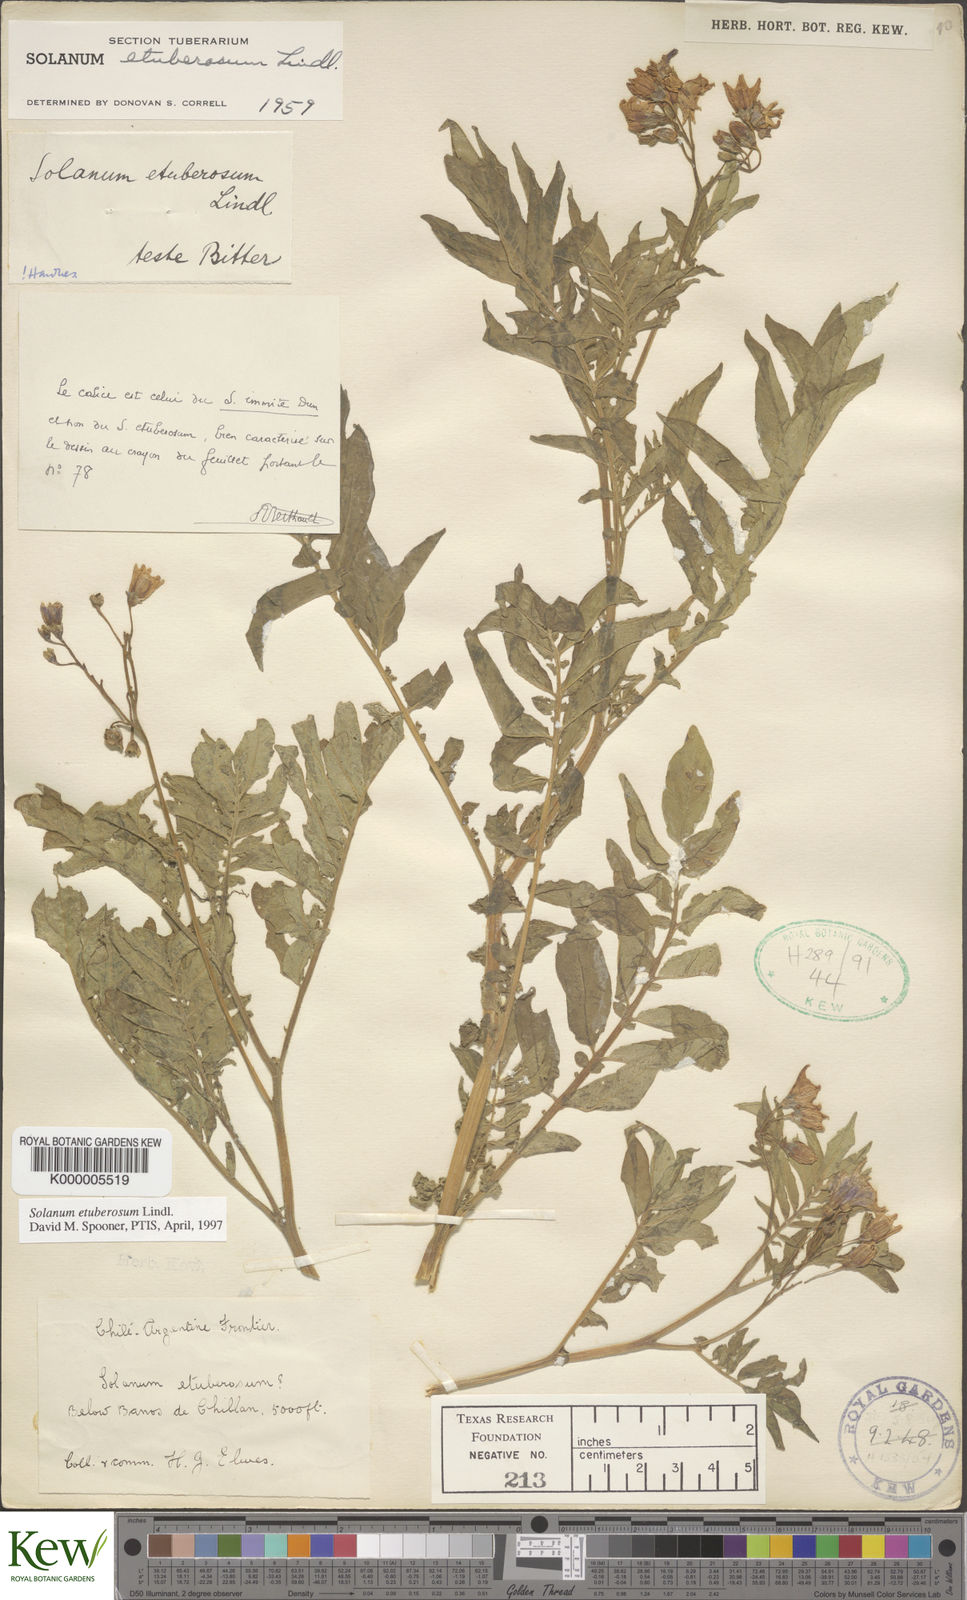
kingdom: Plantae
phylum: Tracheophyta
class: Magnoliopsida
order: Solanales
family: Solanaceae
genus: Solanum
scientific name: Solanum etuberosum
